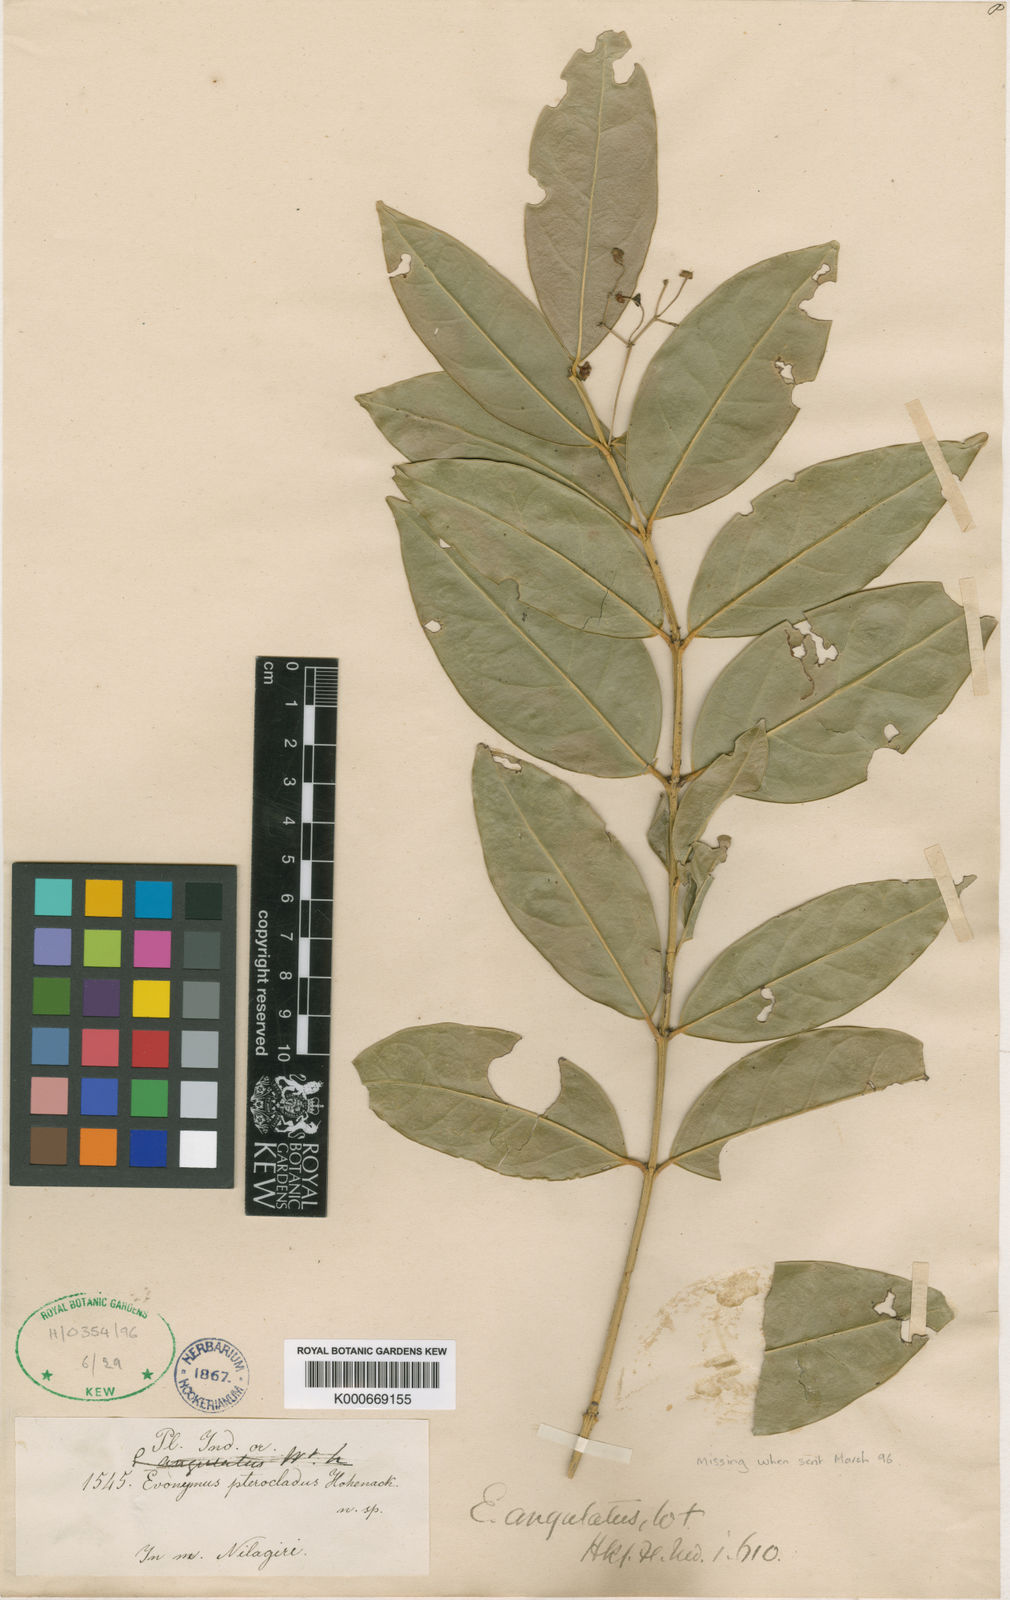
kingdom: Plantae
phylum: Tracheophyta
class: Magnoliopsida
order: Celastrales
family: Celastraceae
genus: Euonymus
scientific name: Euonymus angulatus
